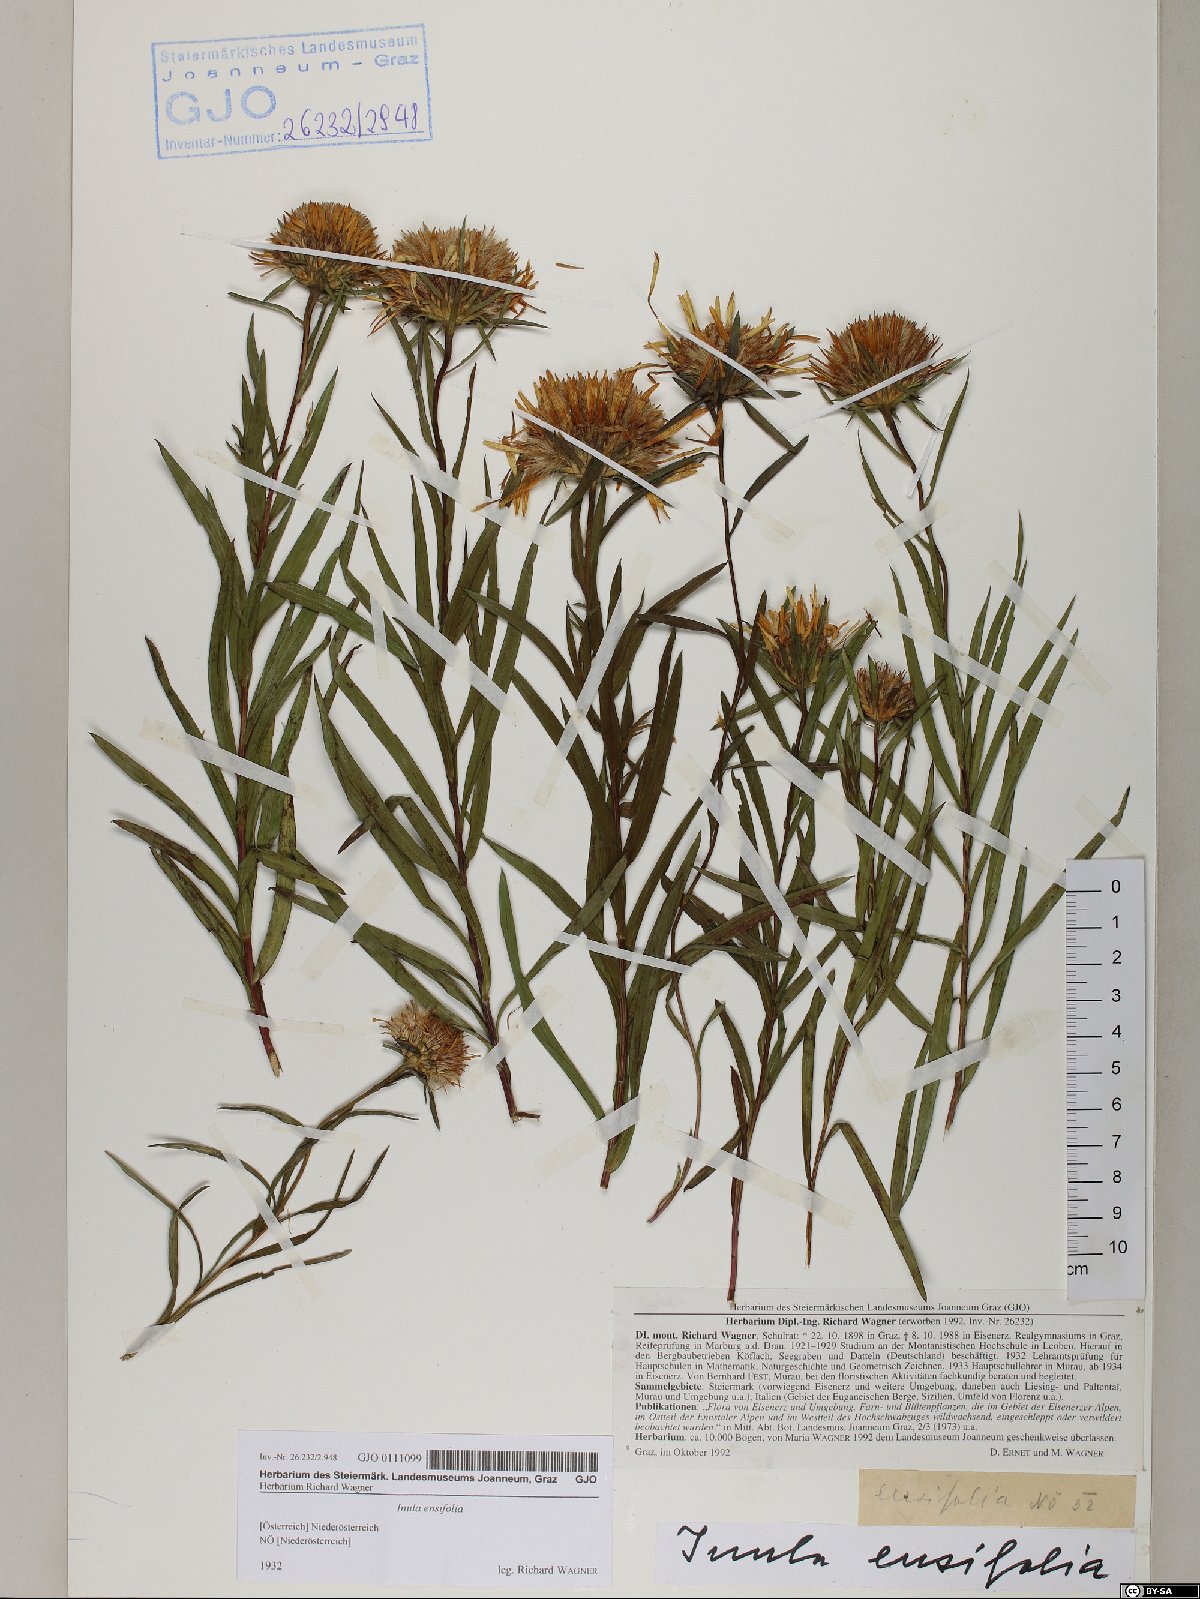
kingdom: Plantae
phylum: Tracheophyta
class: Magnoliopsida
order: Asterales
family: Asteraceae
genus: Pentanema
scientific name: Pentanema ensifolium
